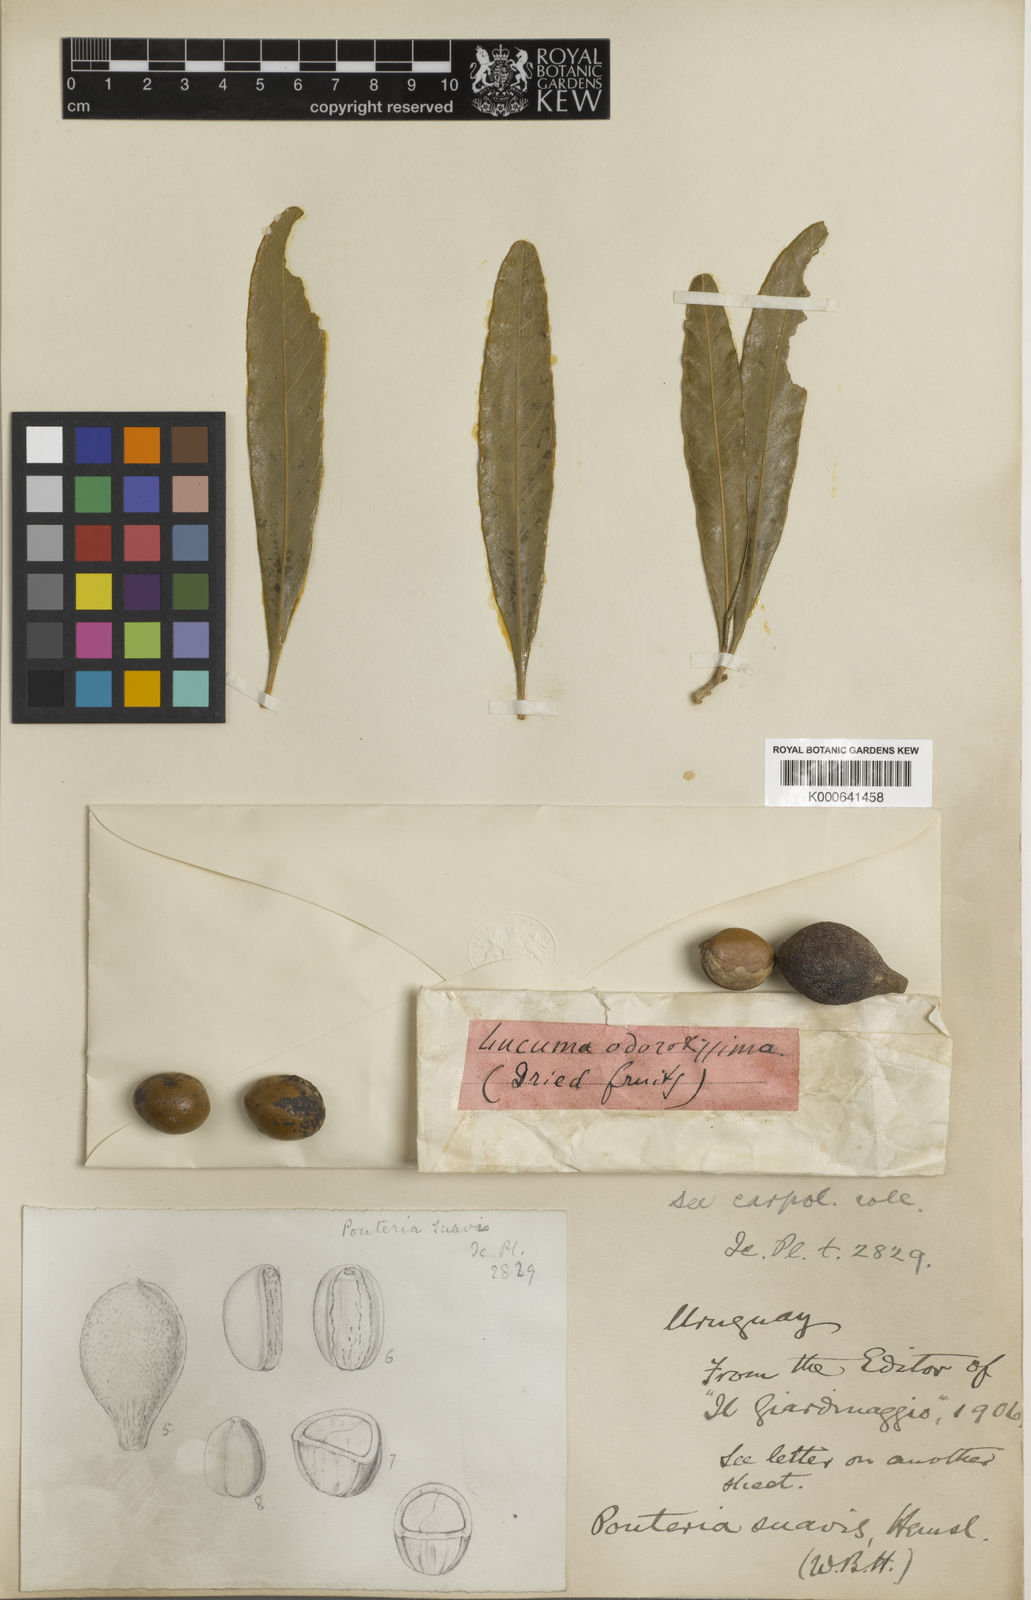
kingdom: Plantae
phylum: Tracheophyta
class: Magnoliopsida
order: Ericales
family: Sapotaceae
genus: Pouteria
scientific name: Pouteria gardneriana
